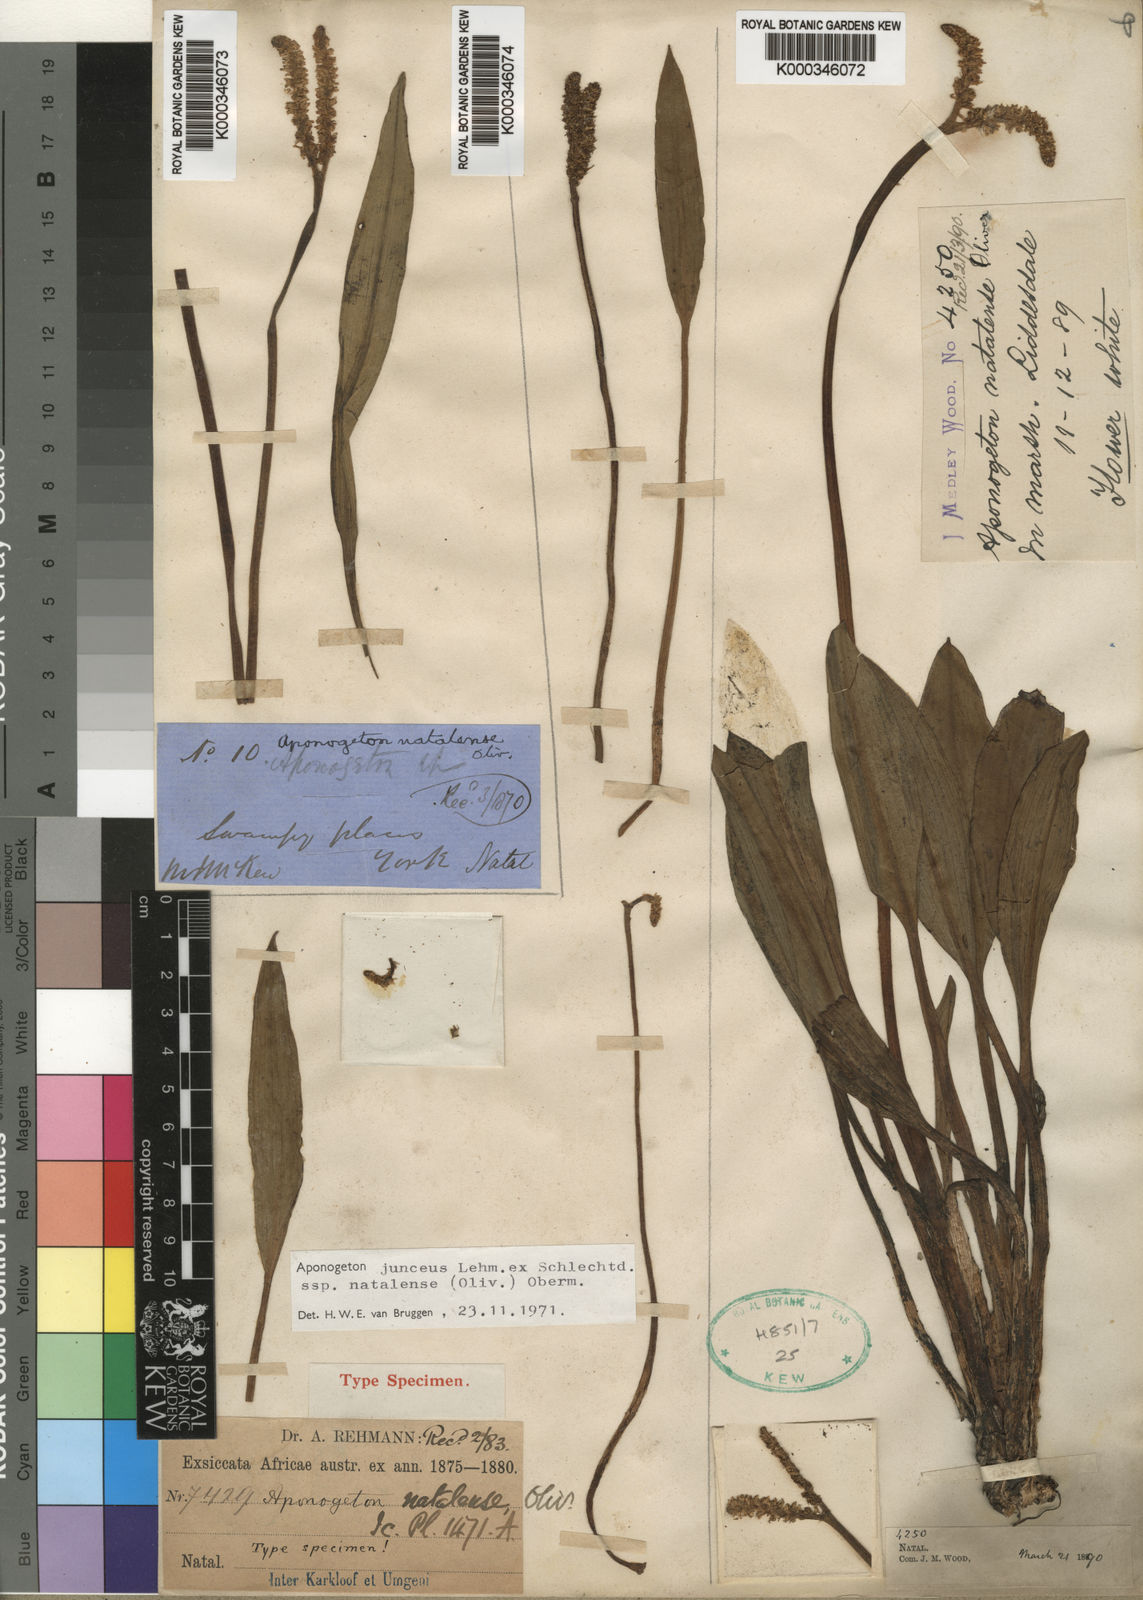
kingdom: Plantae
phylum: Tracheophyta
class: Liliopsida
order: Alismatales
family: Aponogetonaceae
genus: Aponogeton
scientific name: Aponogeton
